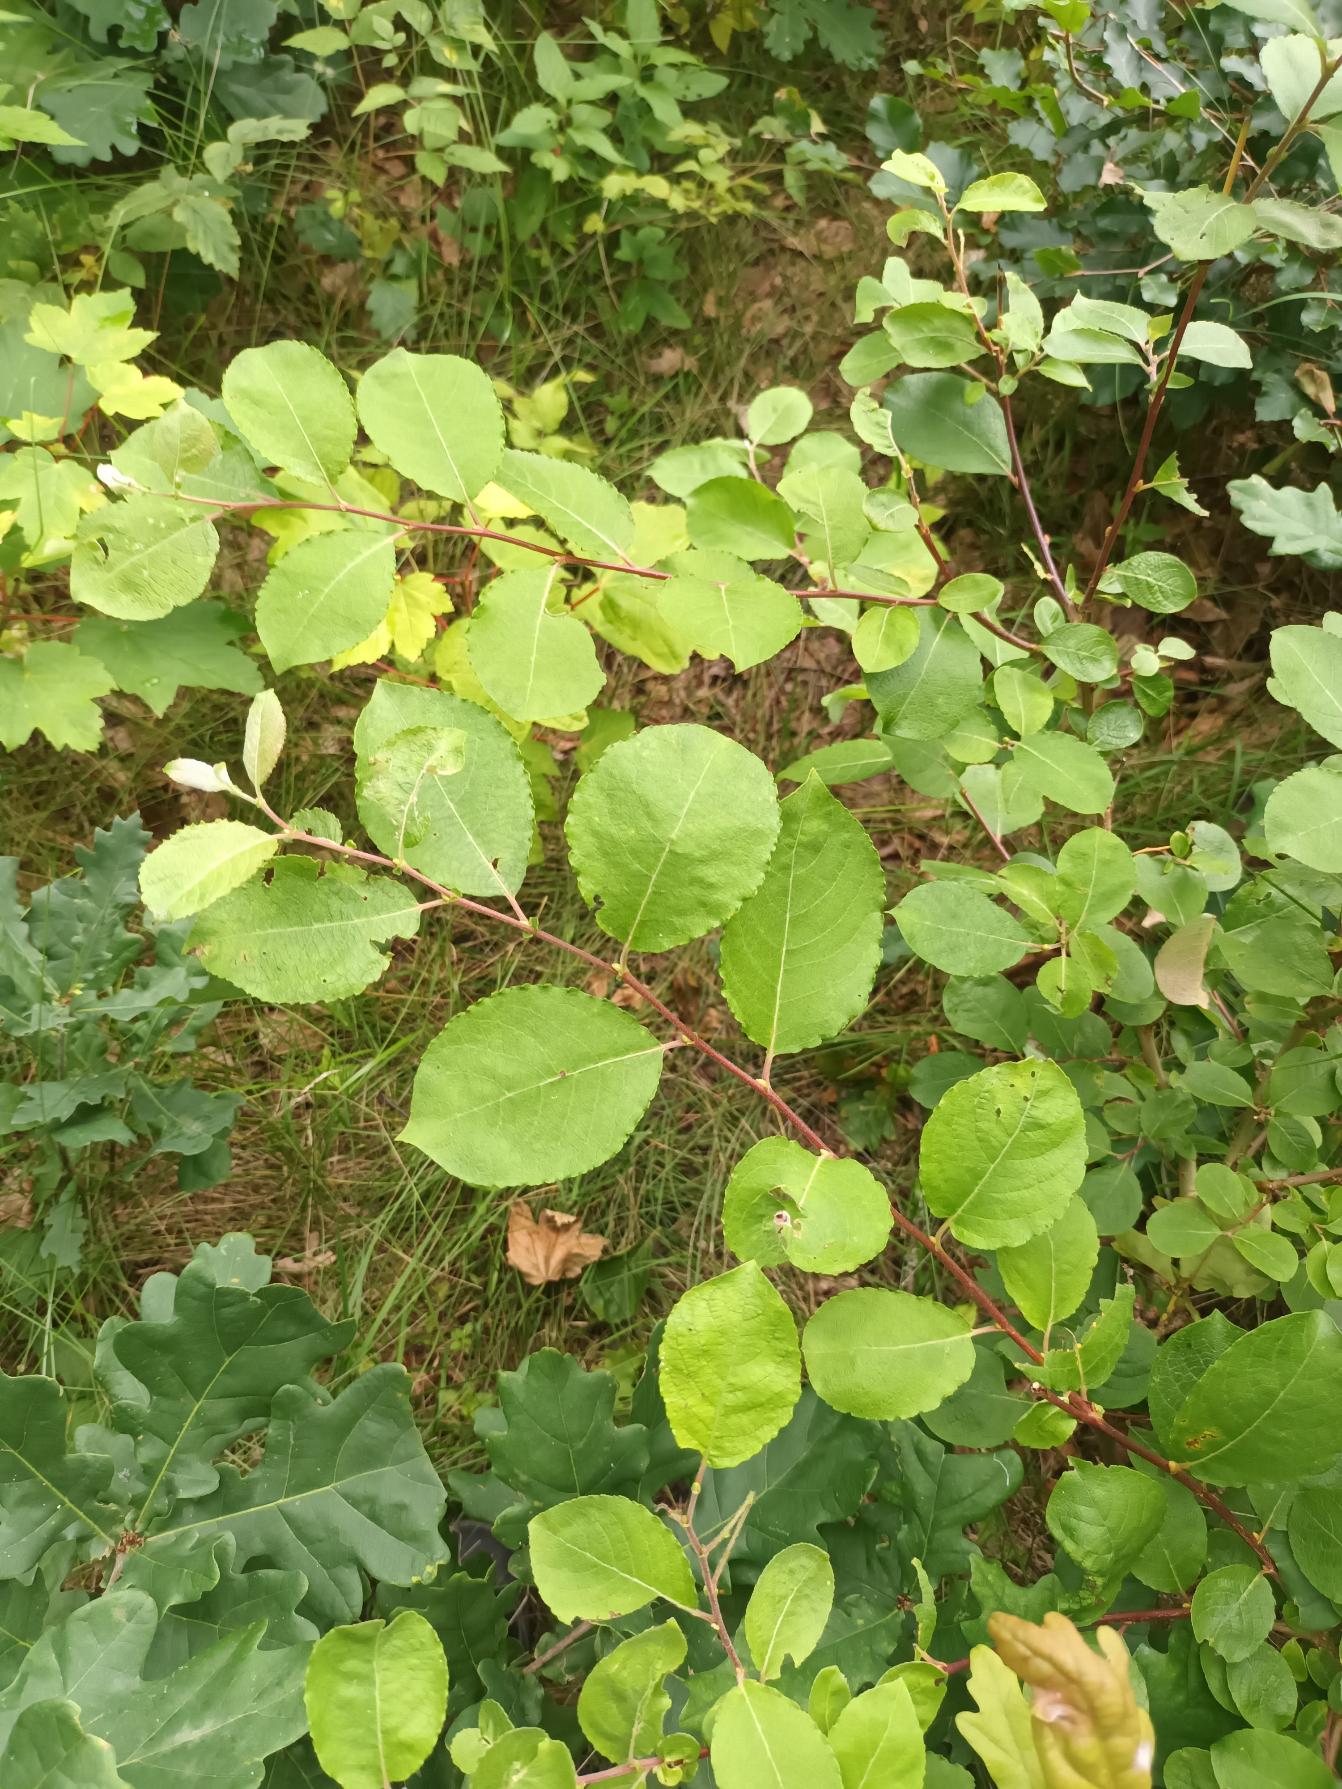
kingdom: Plantae
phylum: Tracheophyta
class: Magnoliopsida
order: Malpighiales
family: Salicaceae
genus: Salix
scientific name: Salix caprea
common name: Selje-pil
